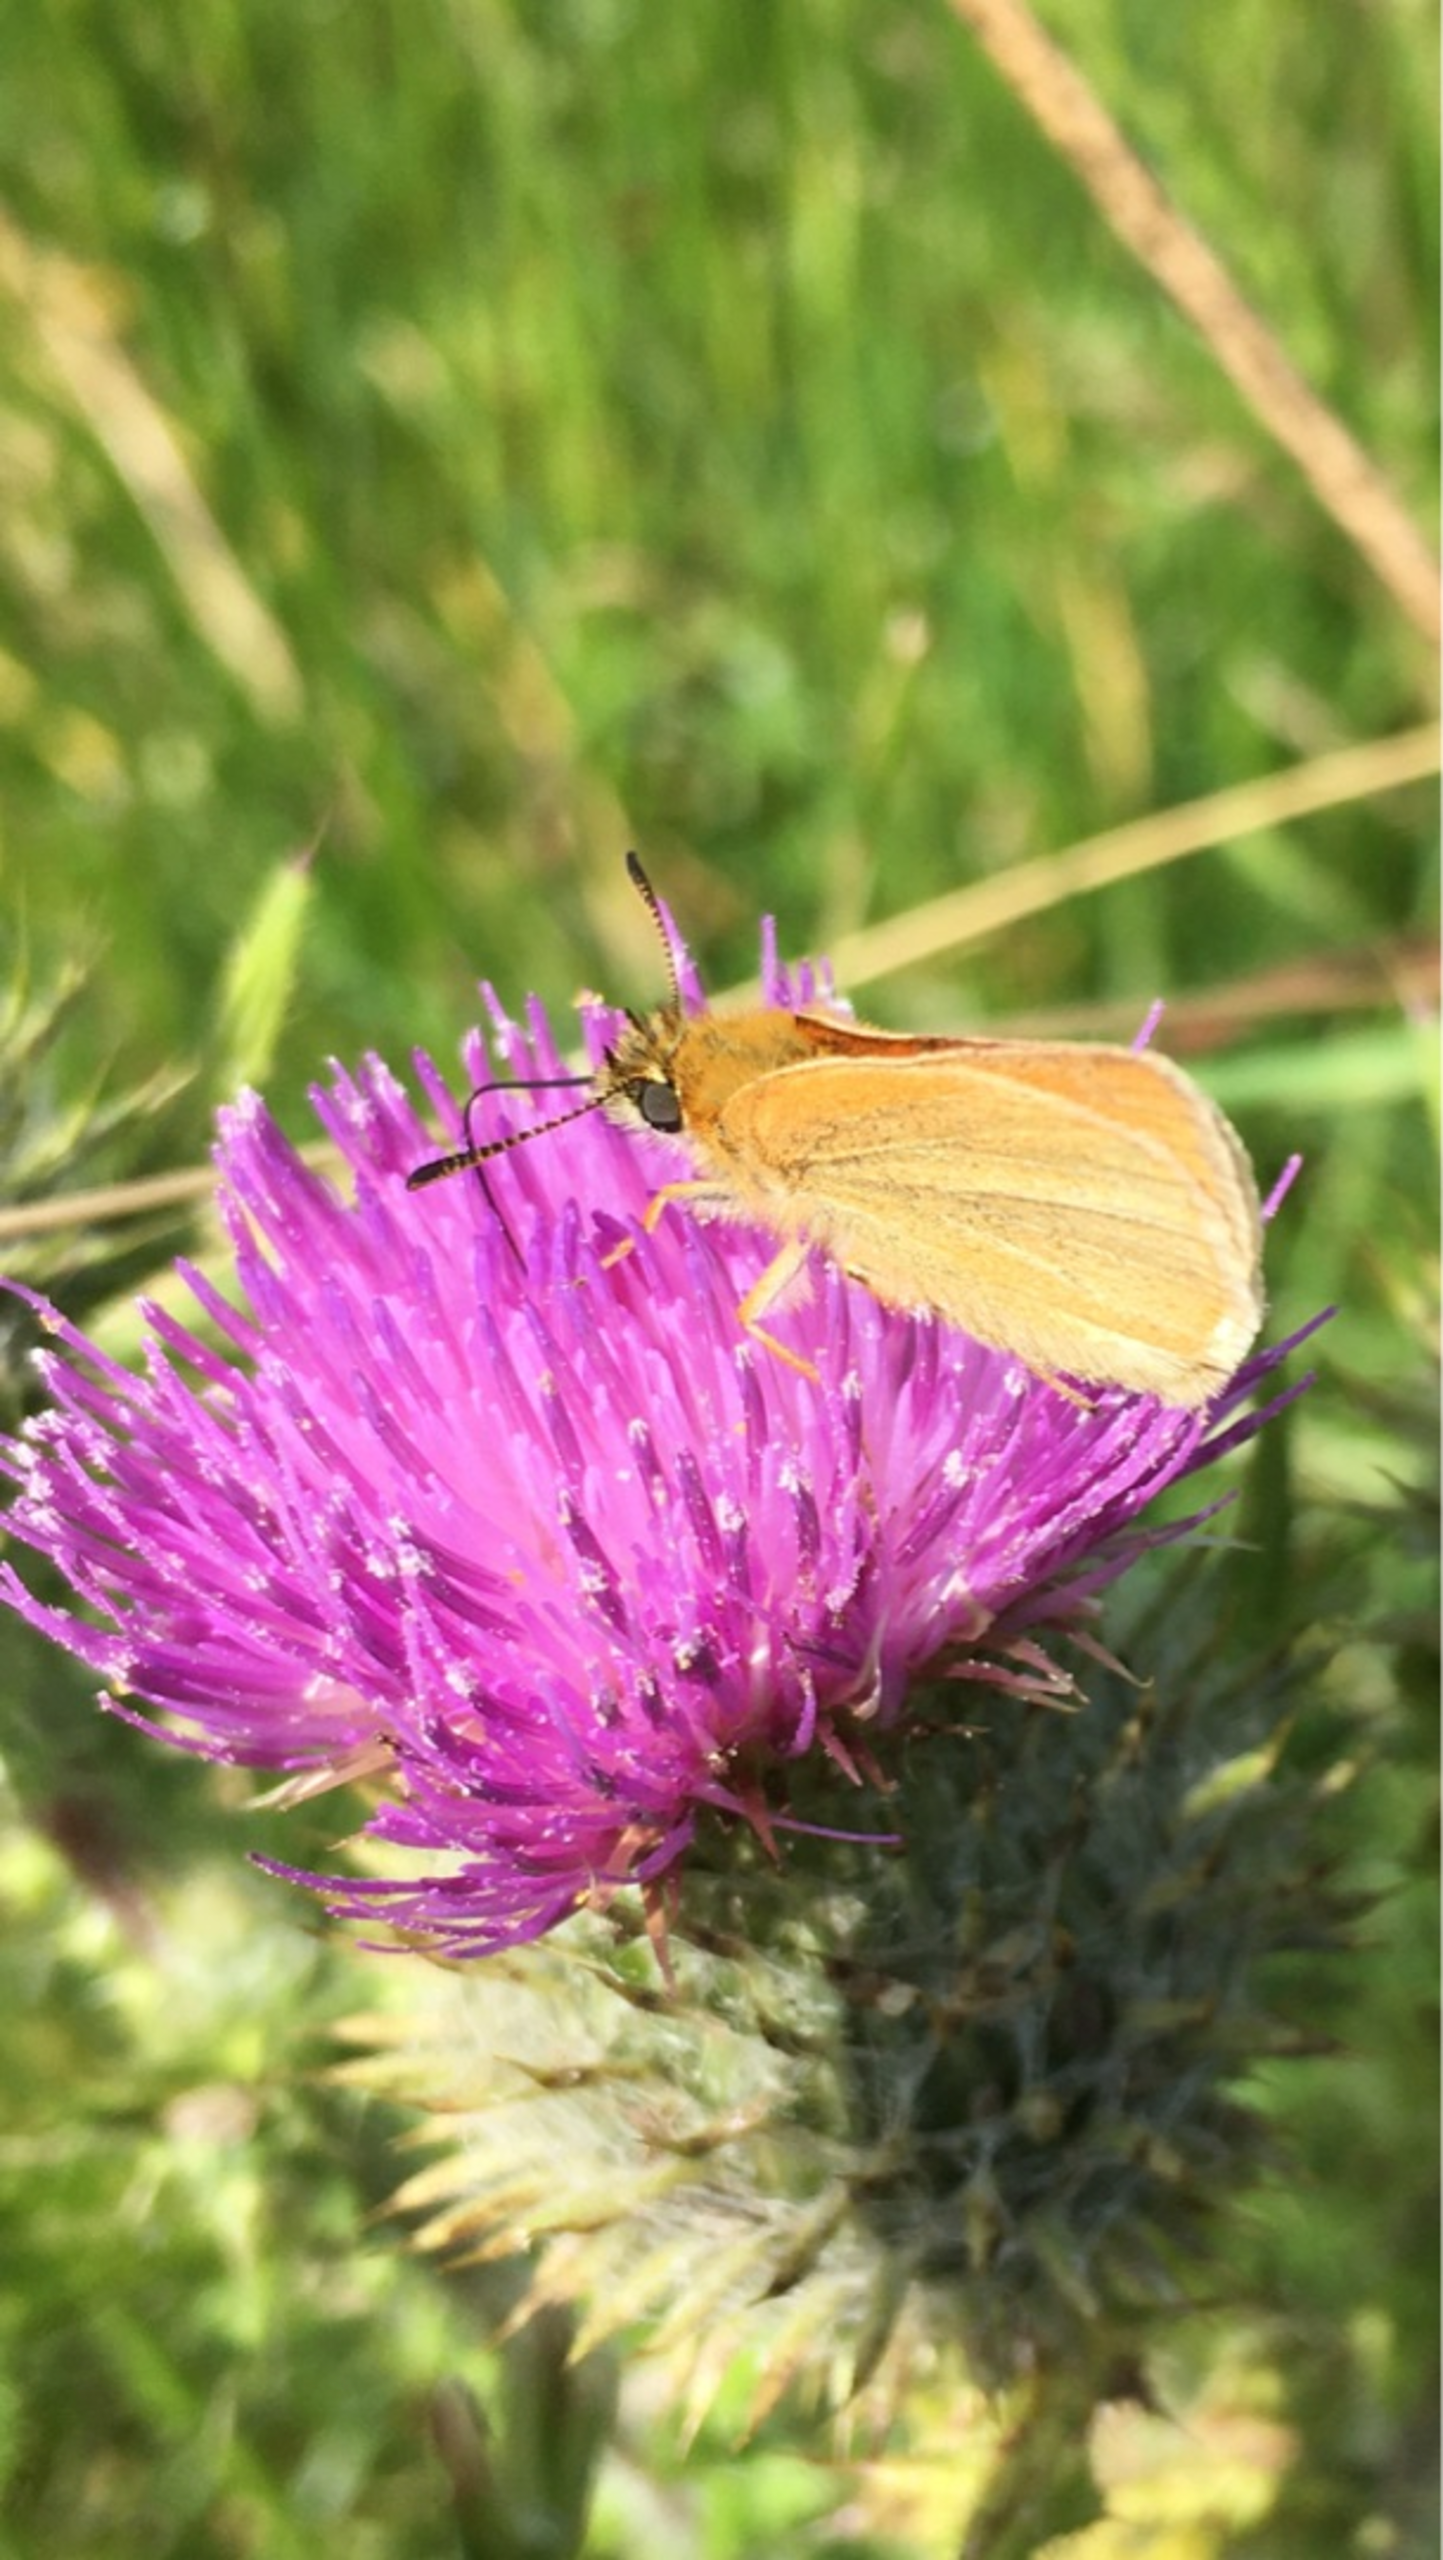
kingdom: Animalia
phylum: Arthropoda
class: Insecta
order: Lepidoptera
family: Hesperiidae
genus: Thymelicus
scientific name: Thymelicus lineola
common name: Stregbredpande
